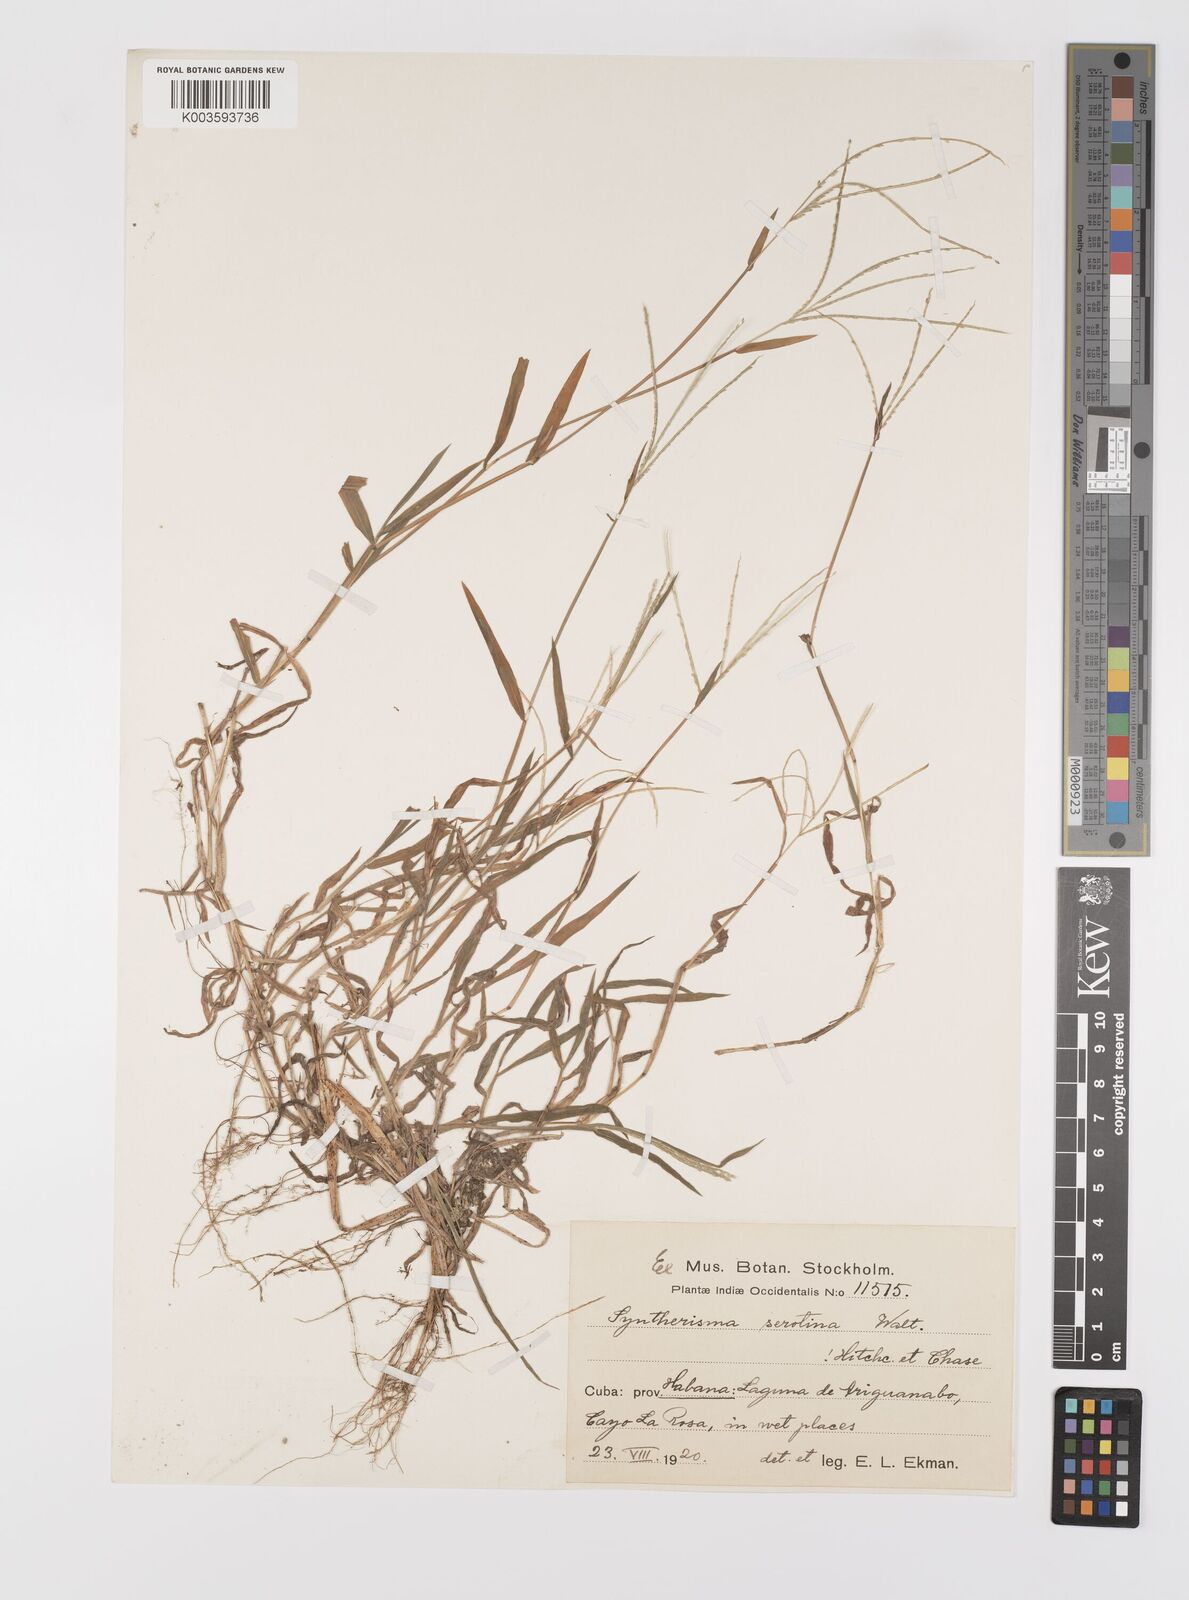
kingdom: Plantae
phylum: Tracheophyta
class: Liliopsida
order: Poales
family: Poaceae
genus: Digitaria
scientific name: Digitaria serotina
